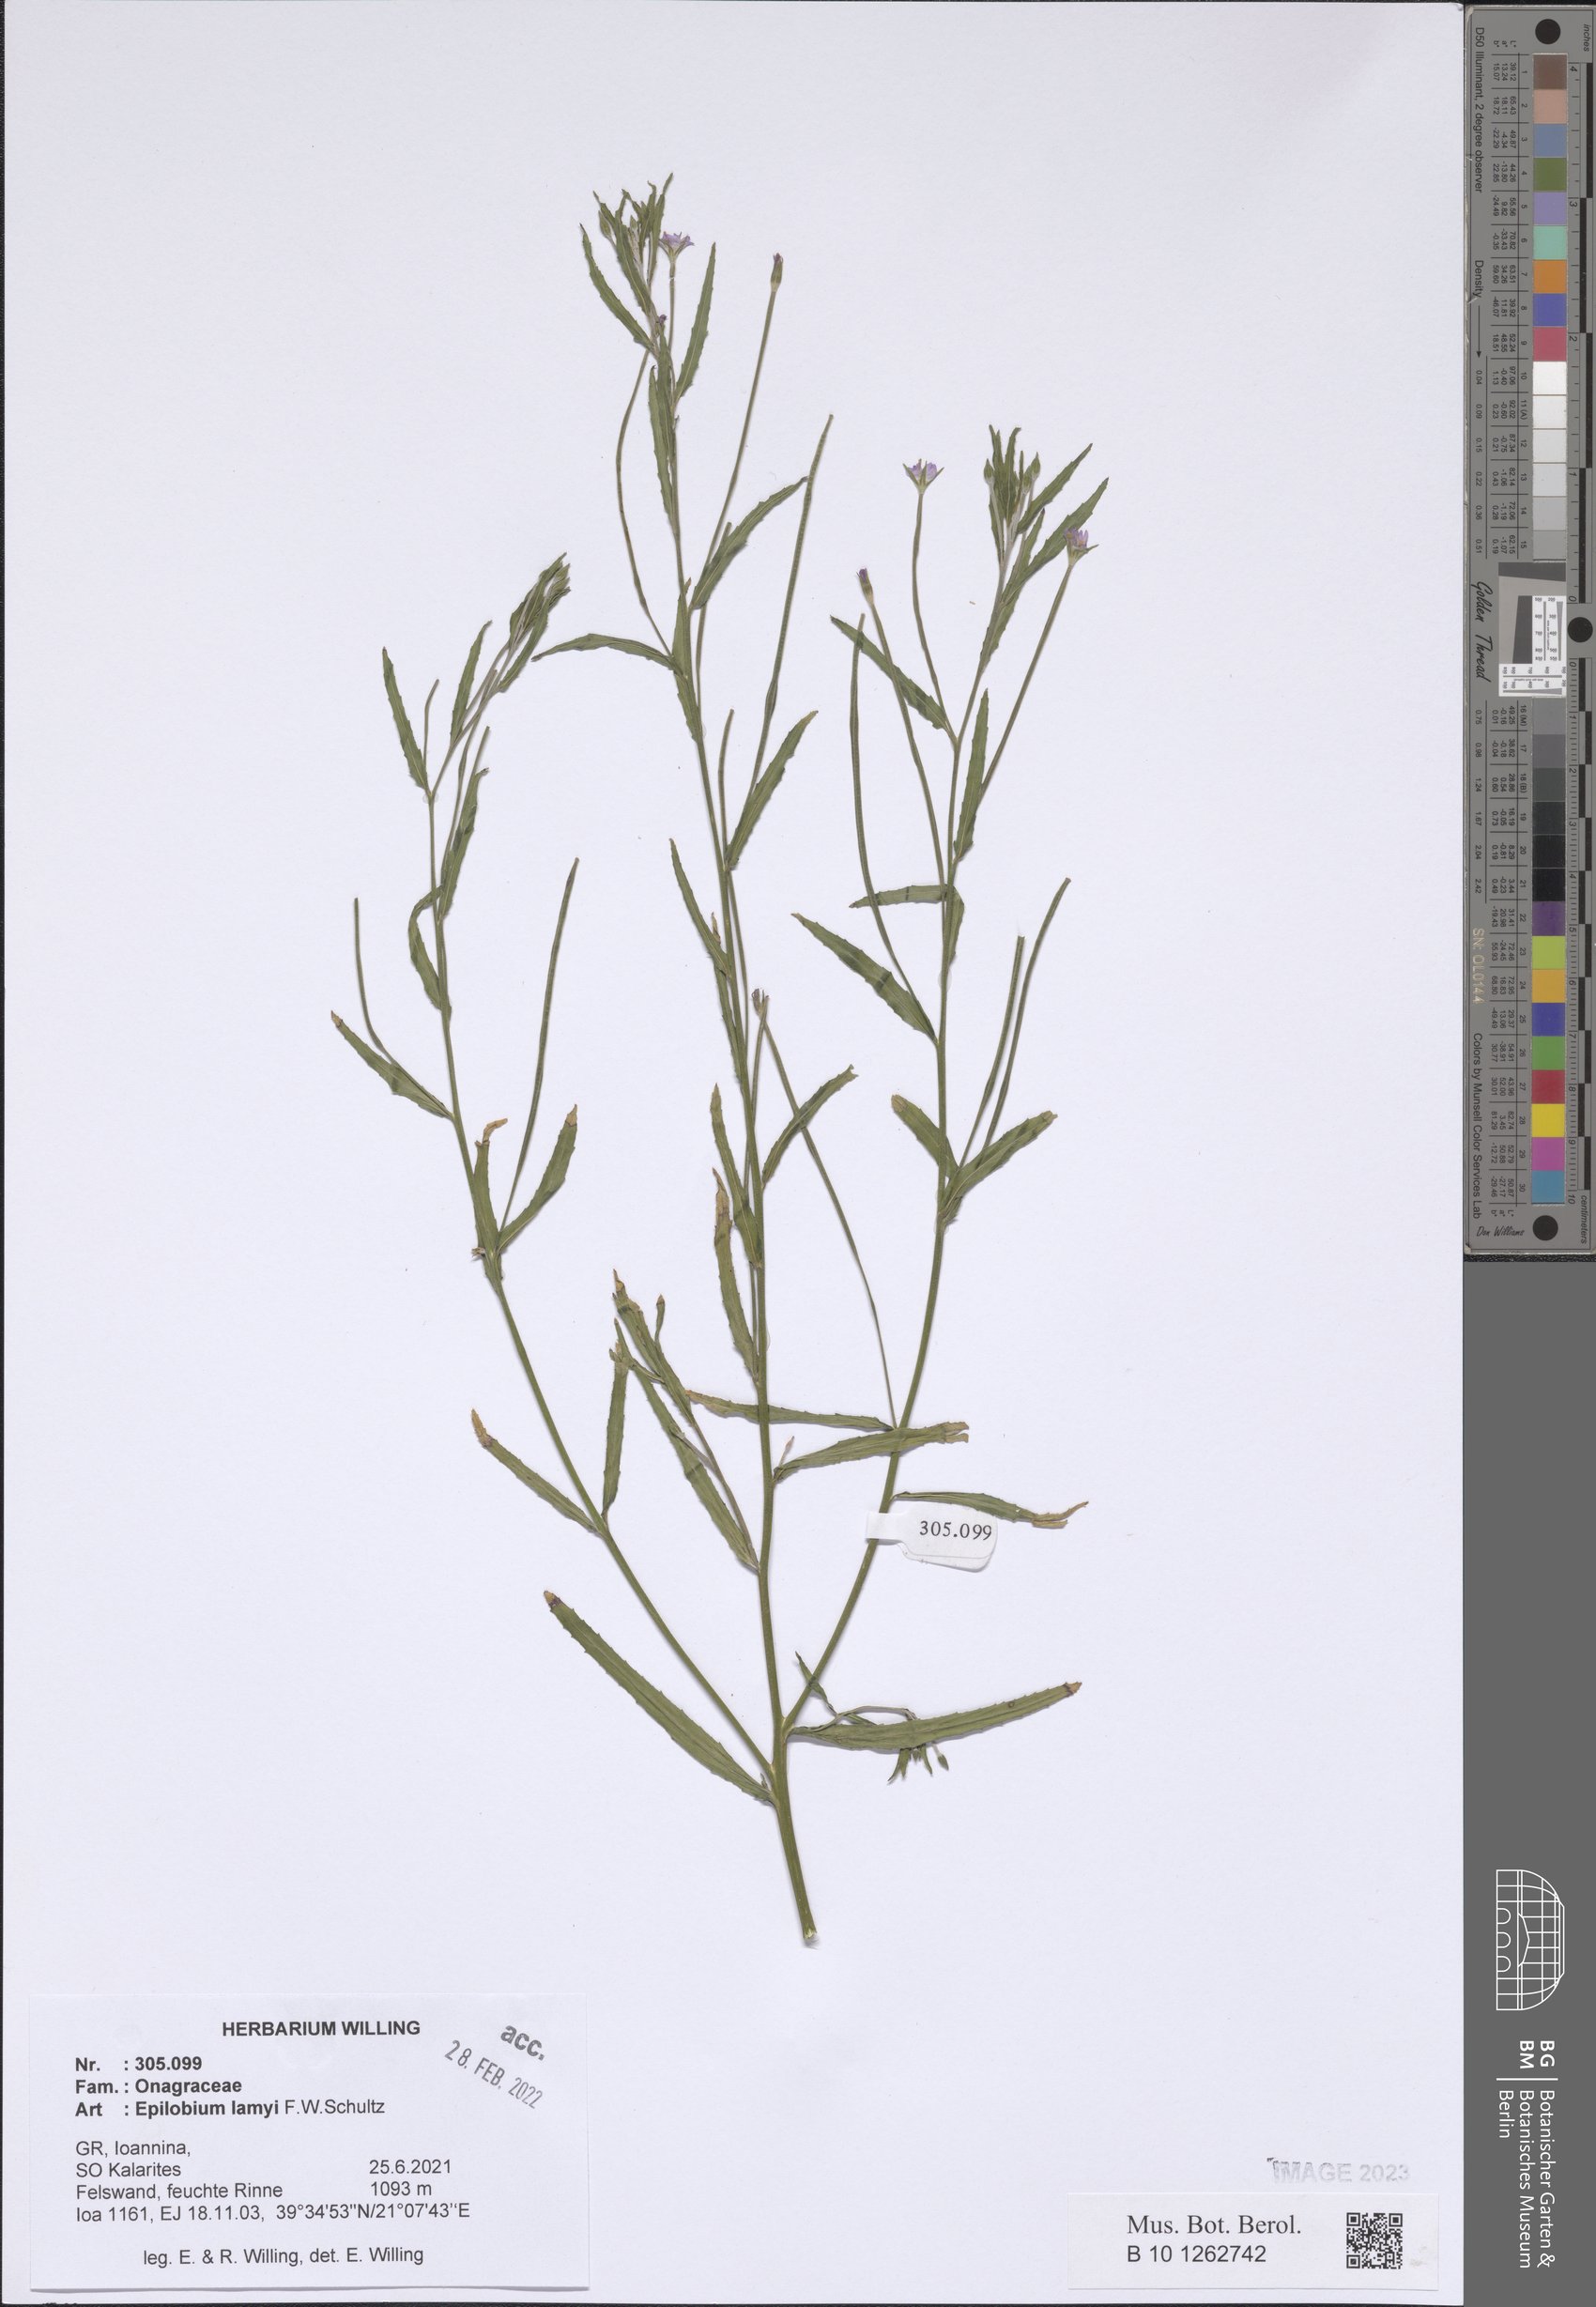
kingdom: Plantae
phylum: Tracheophyta
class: Magnoliopsida
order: Myrtales
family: Onagraceae
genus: Epilobium
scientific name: Epilobium lamyi
